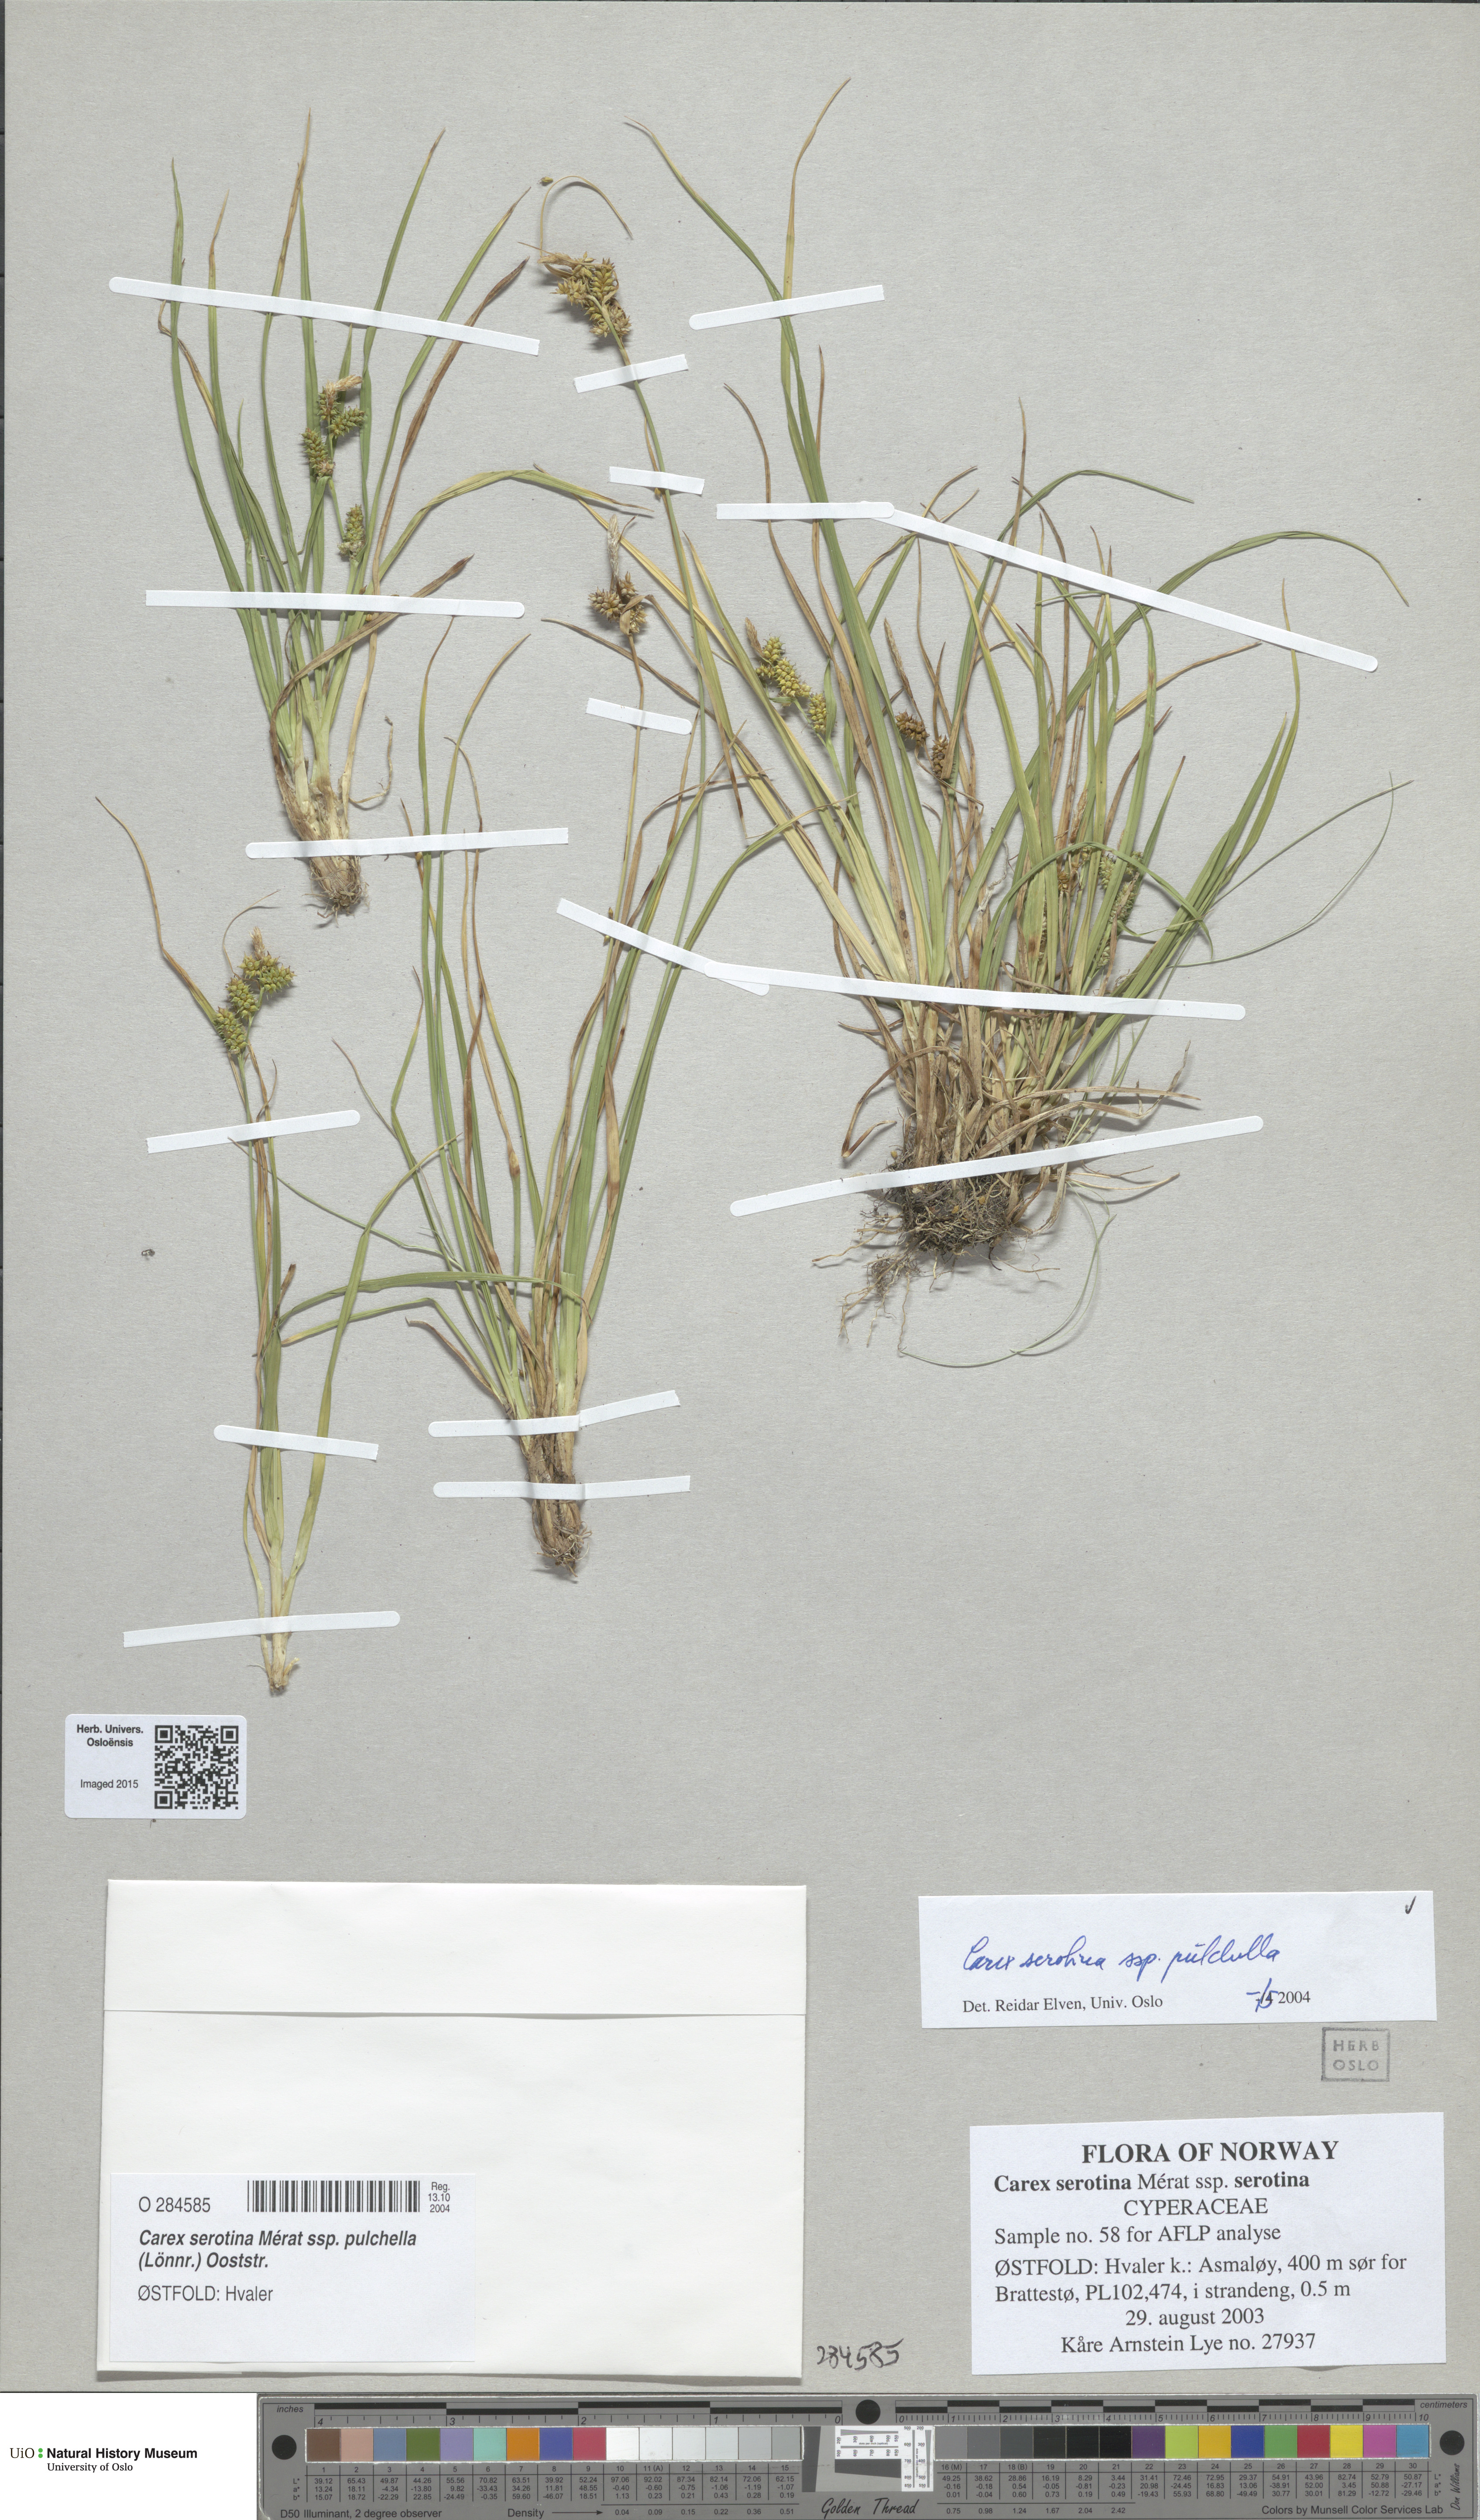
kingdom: Plantae
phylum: Tracheophyta
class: Liliopsida
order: Poales
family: Cyperaceae
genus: Carex
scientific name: Carex oederi
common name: Common & small-fruited yellow-sedge
